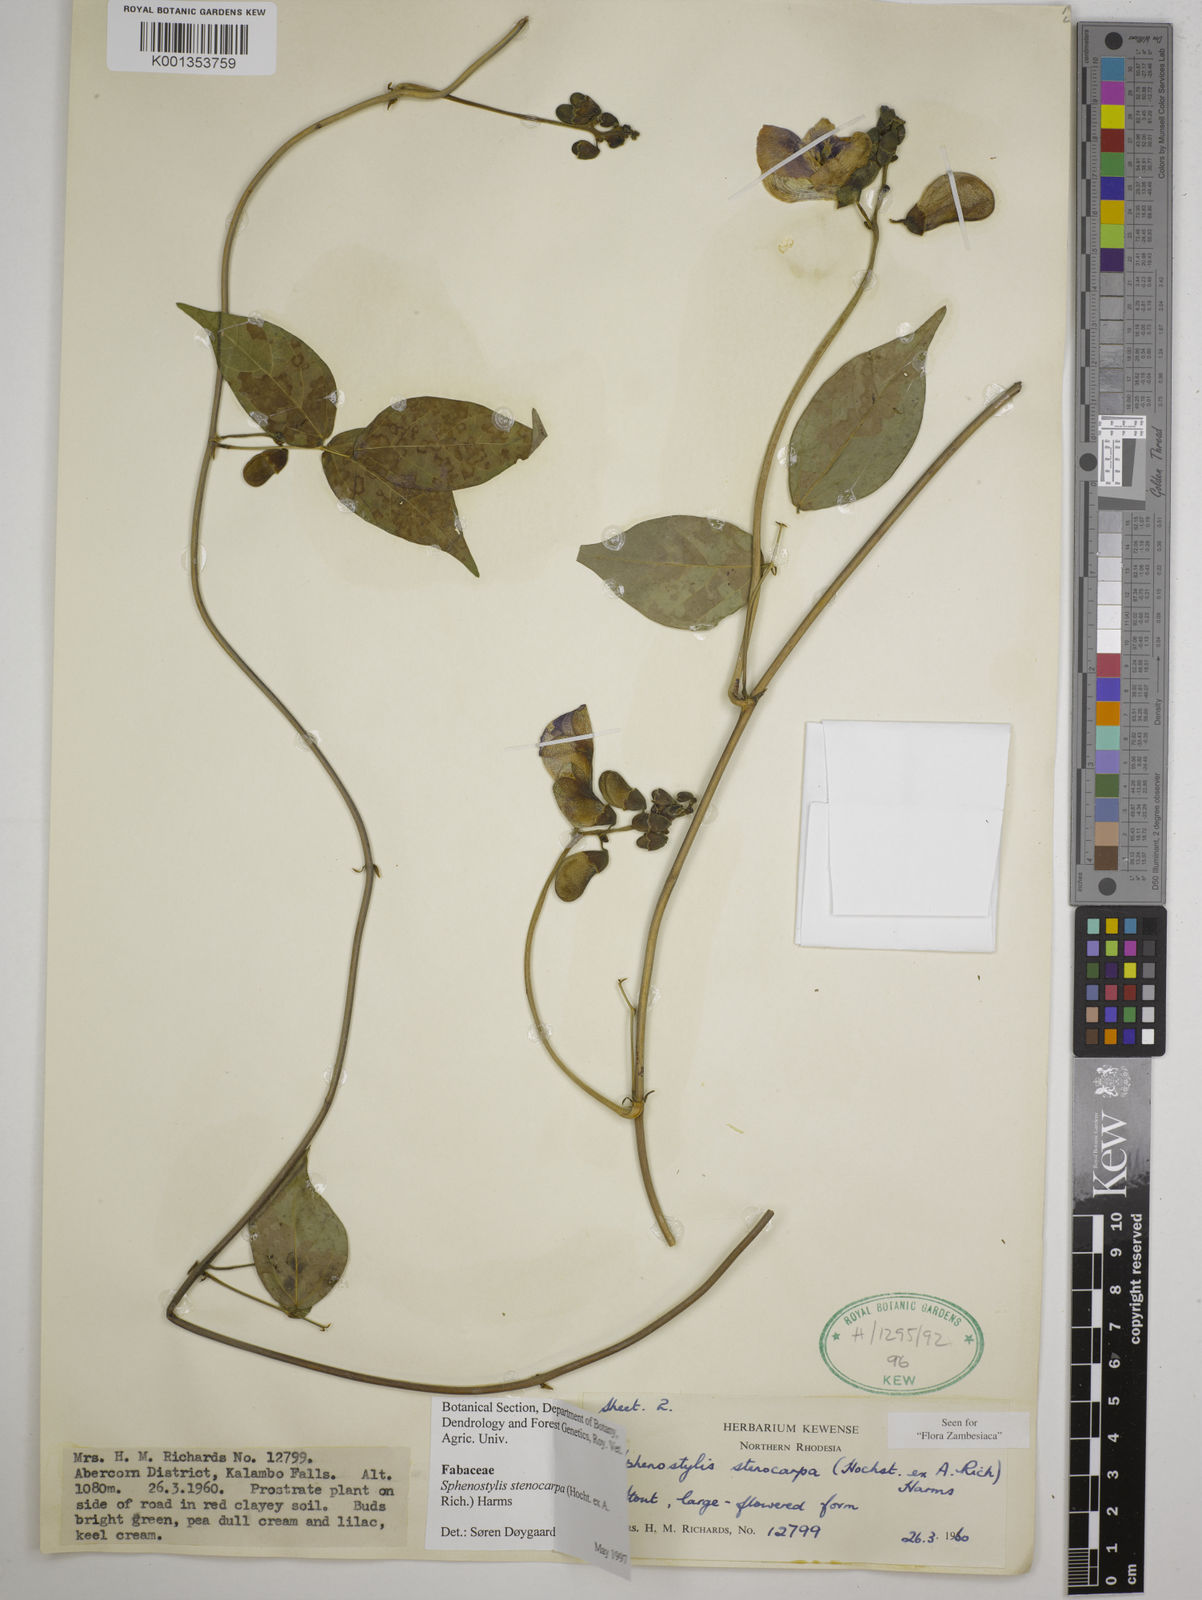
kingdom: Plantae
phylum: Tracheophyta
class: Magnoliopsida
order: Fabales
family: Fabaceae
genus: Sphenostylis
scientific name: Sphenostylis stenocarpa
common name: Yam-pea
